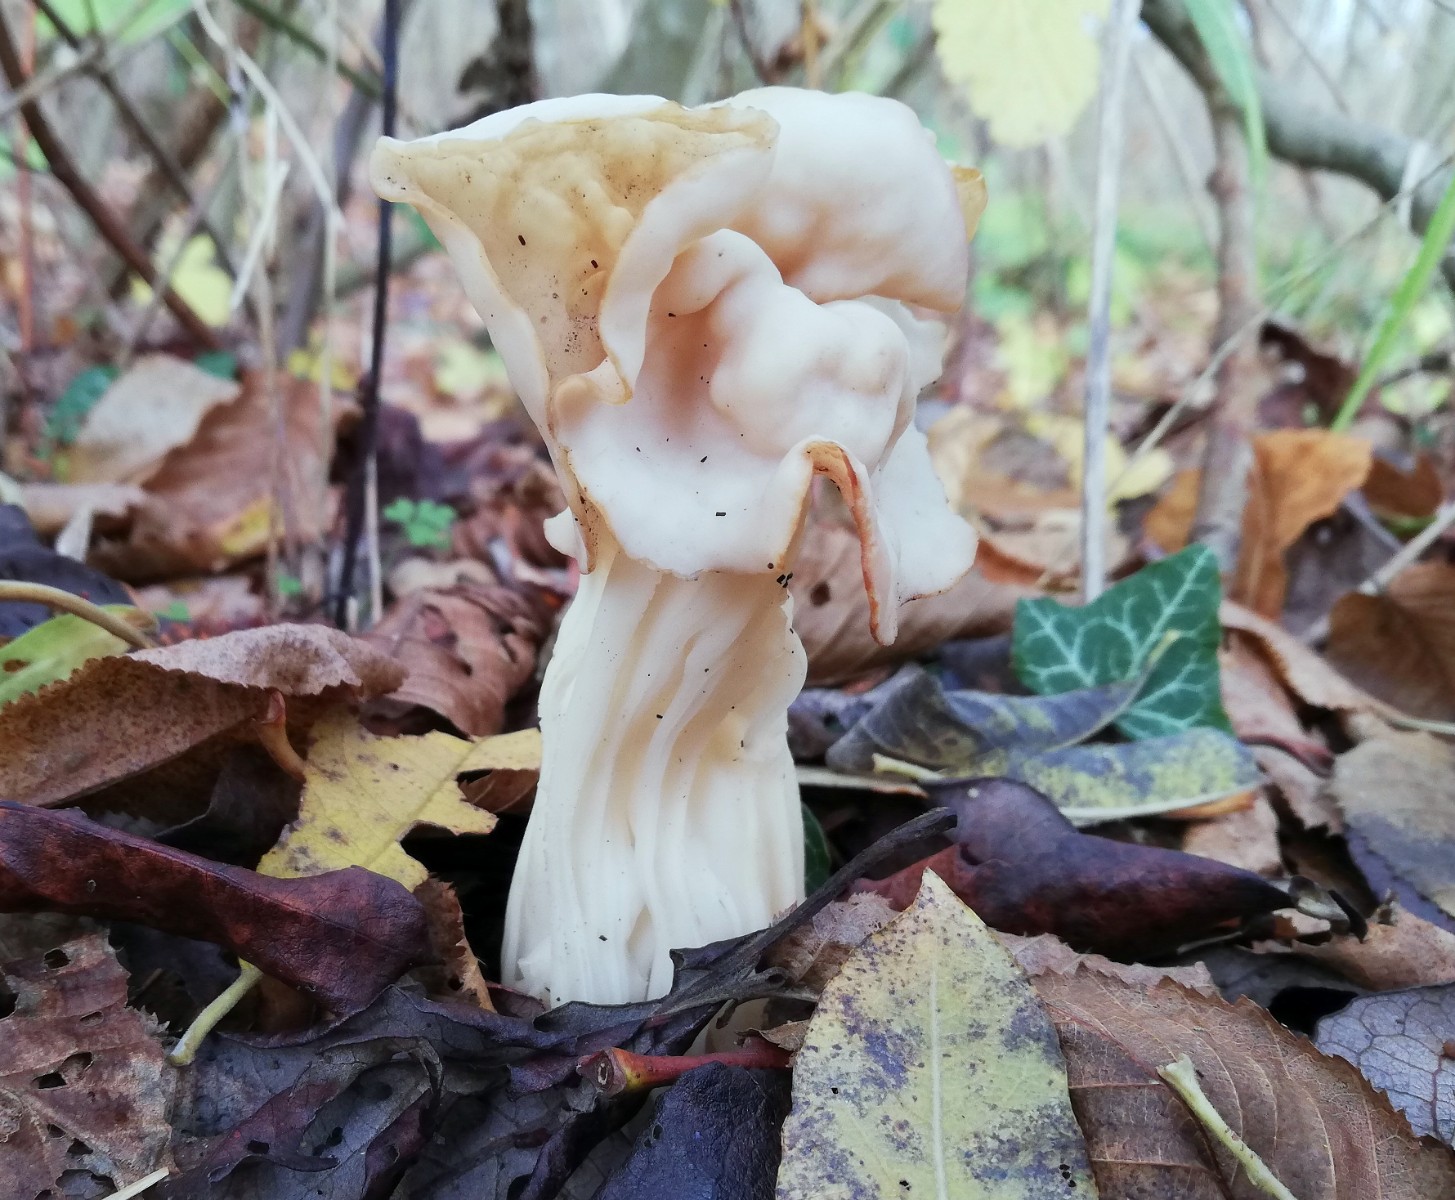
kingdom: Fungi
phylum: Ascomycota
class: Pezizomycetes
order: Pezizales
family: Helvellaceae
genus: Helvella
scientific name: Helvella crispa
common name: kruset foldhat
